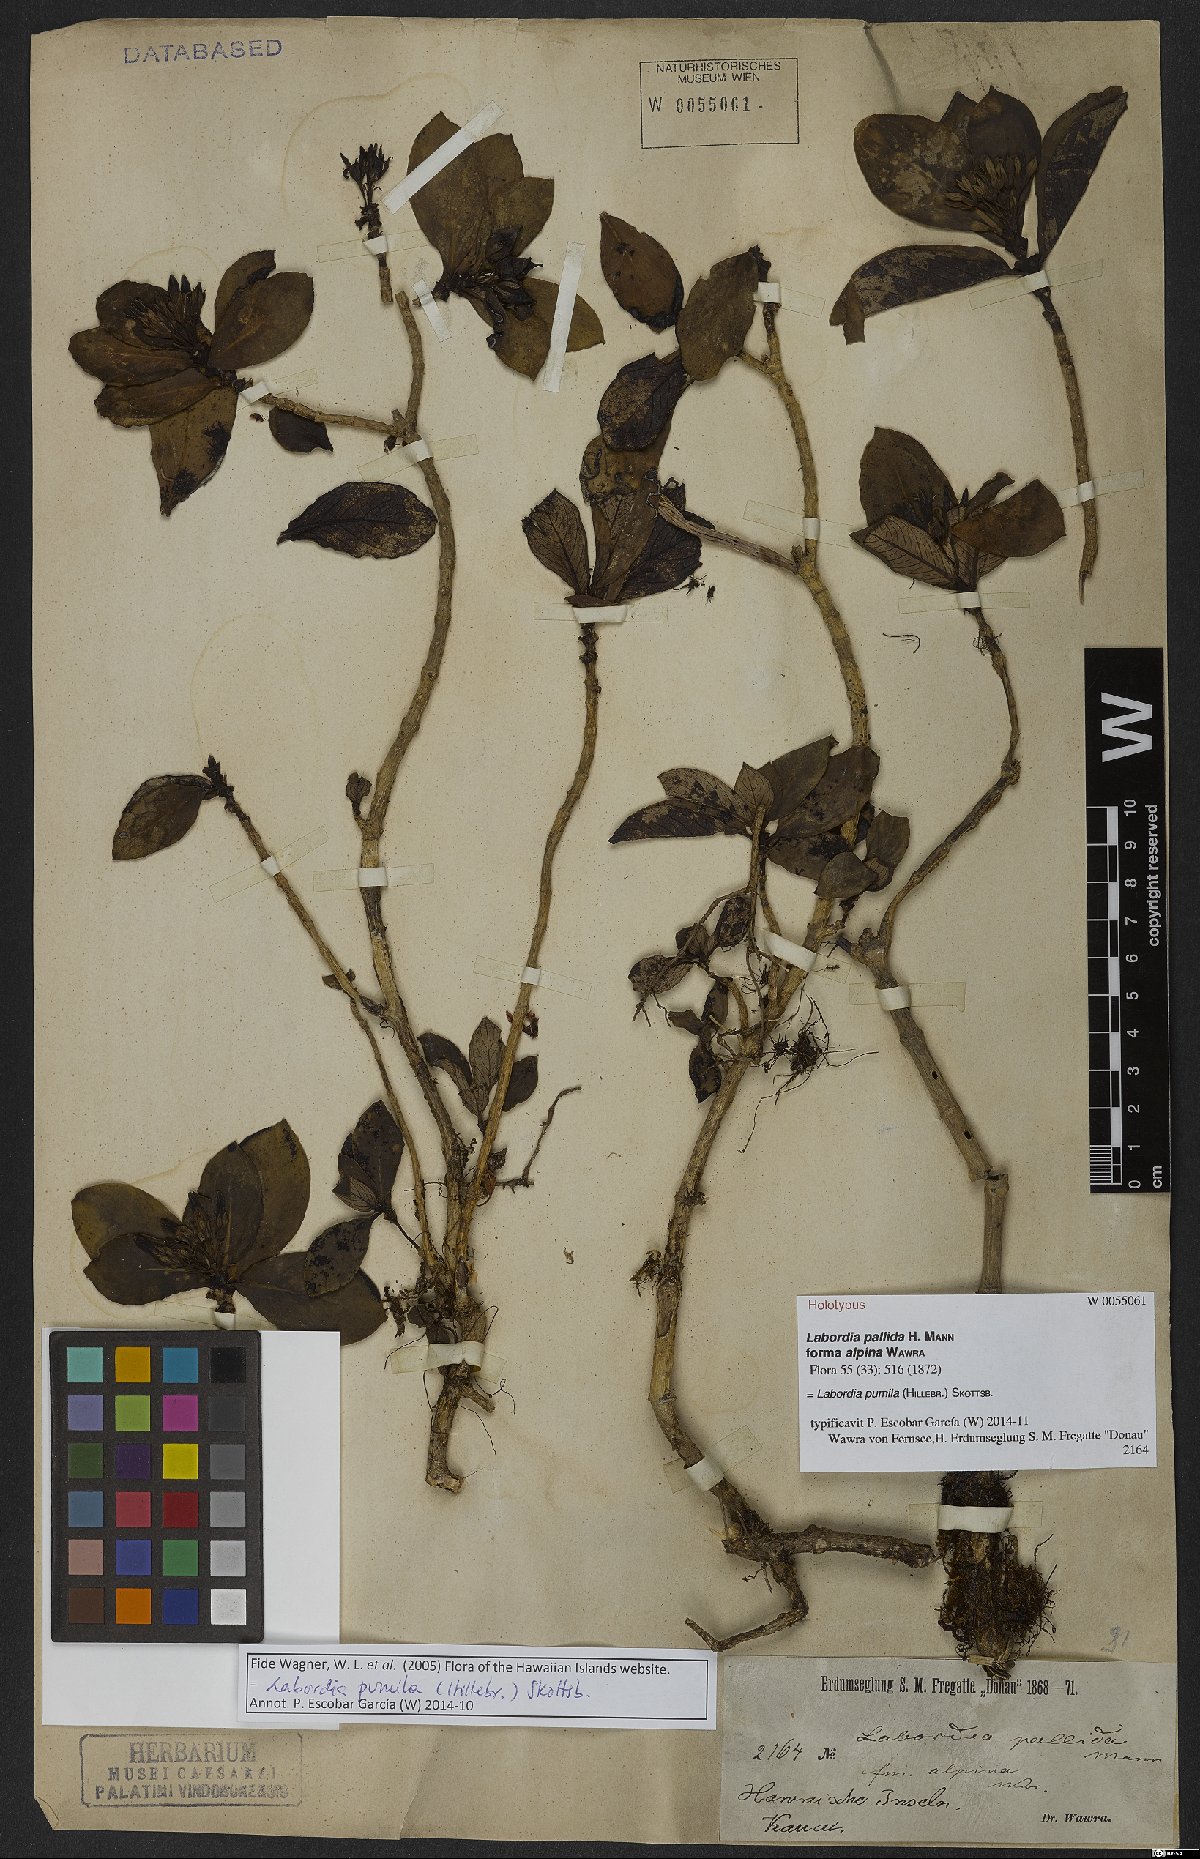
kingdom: Plantae
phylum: Tracheophyta
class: Magnoliopsida
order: Gentianales
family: Loganiaceae
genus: Geniostoma
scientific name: Geniostoma pumilum
